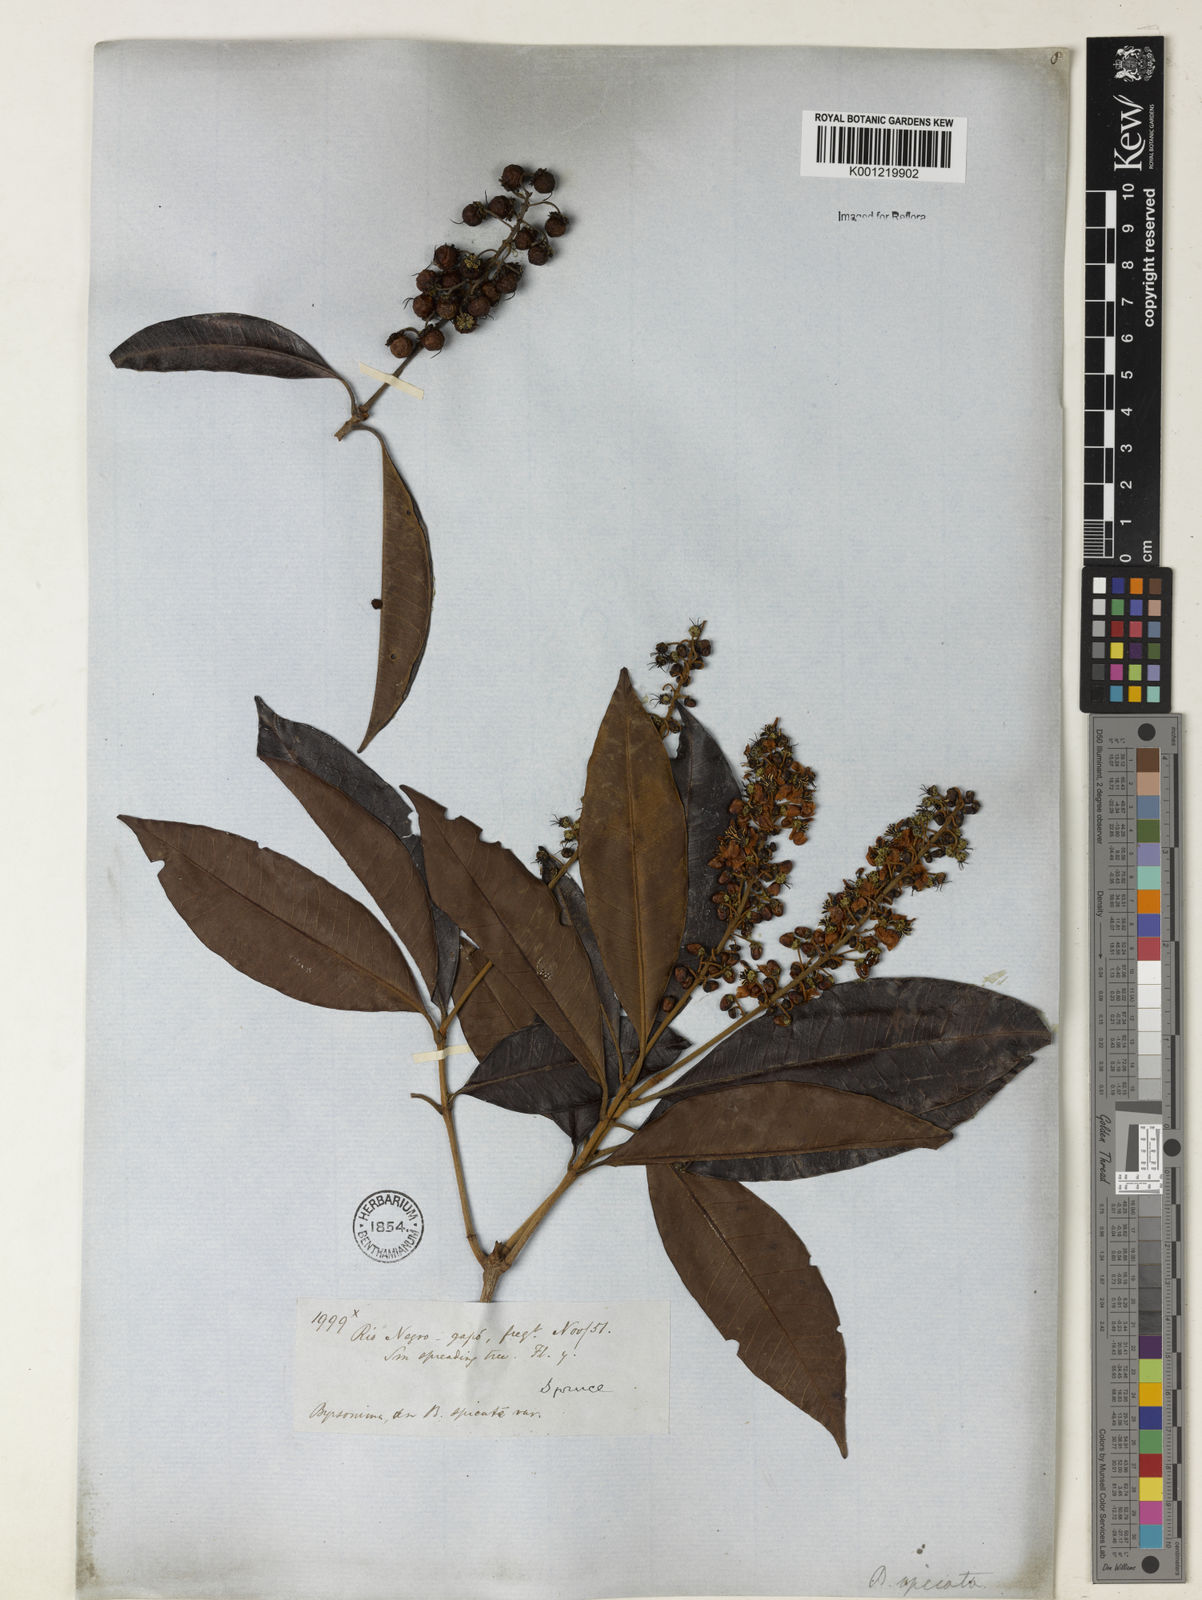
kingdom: Plantae
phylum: Tracheophyta
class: Magnoliopsida
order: Malpighiales
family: Malpighiaceae
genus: Byrsonima
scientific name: Byrsonima
